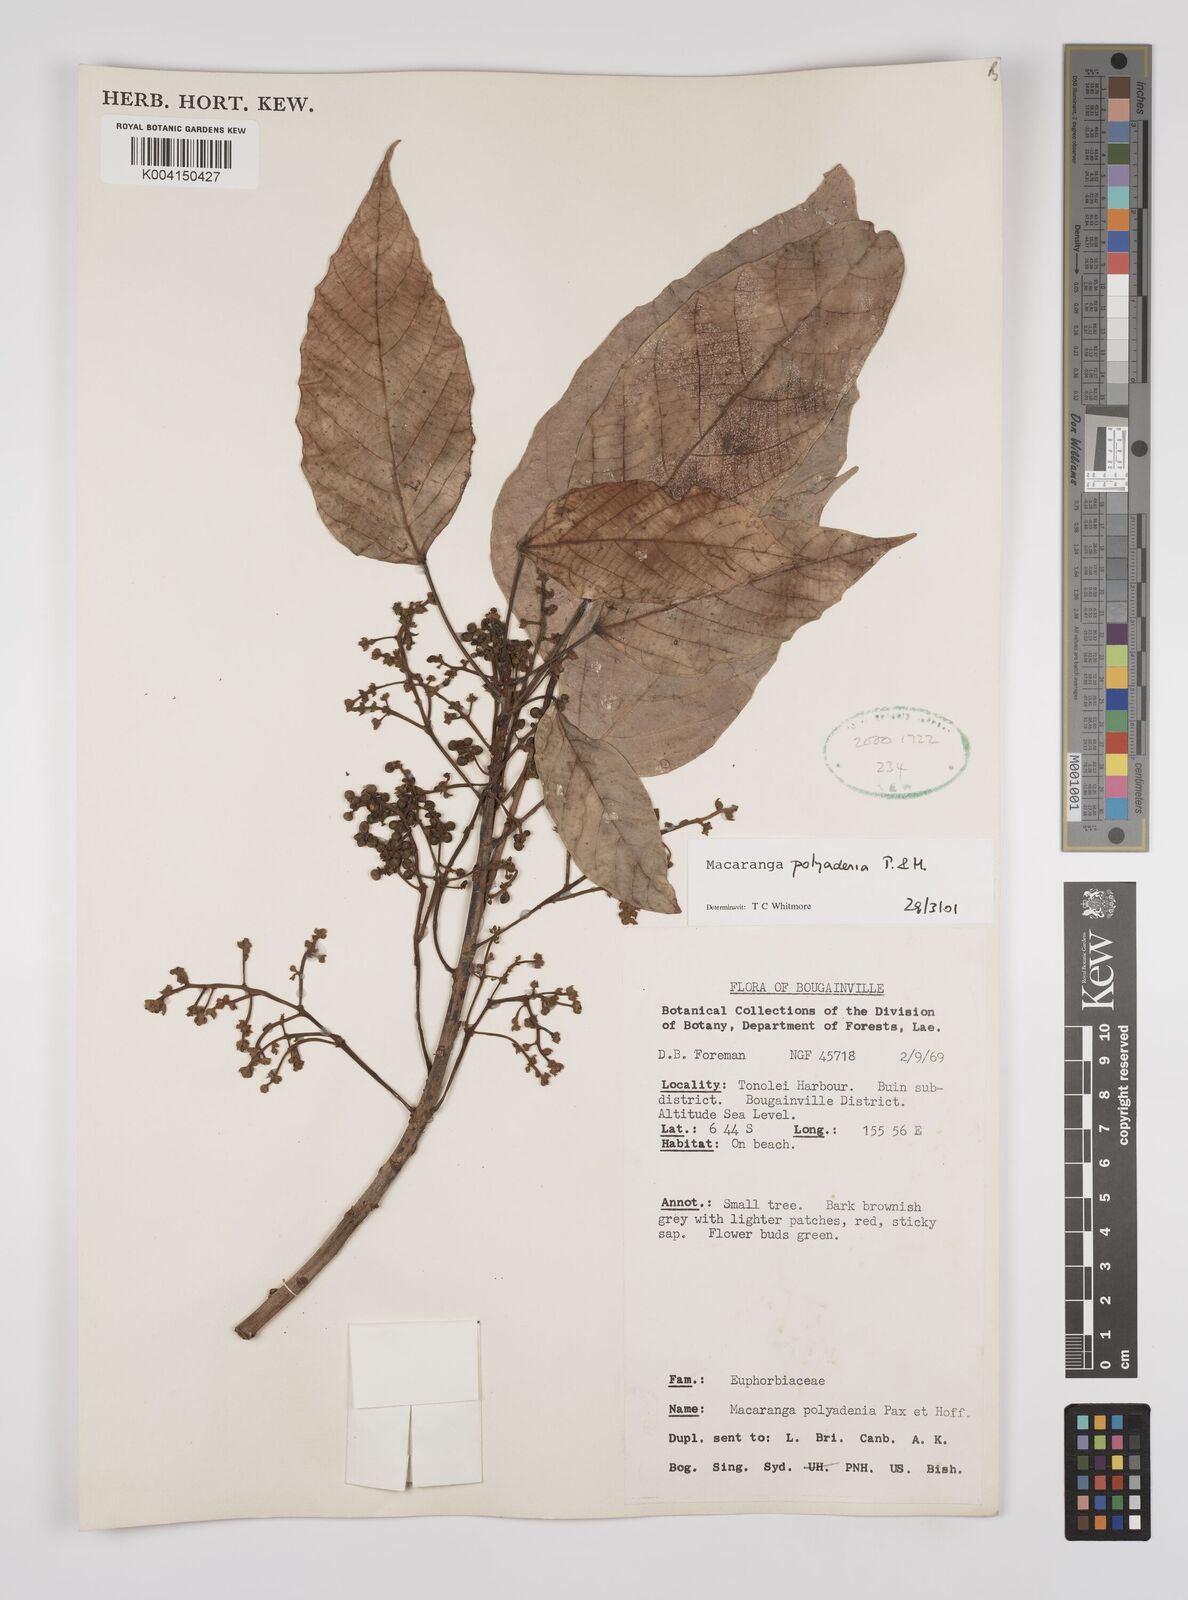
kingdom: Plantae
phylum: Tracheophyta
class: Magnoliopsida
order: Malpighiales
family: Euphorbiaceae
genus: Macaranga
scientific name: Macaranga polyadenia
